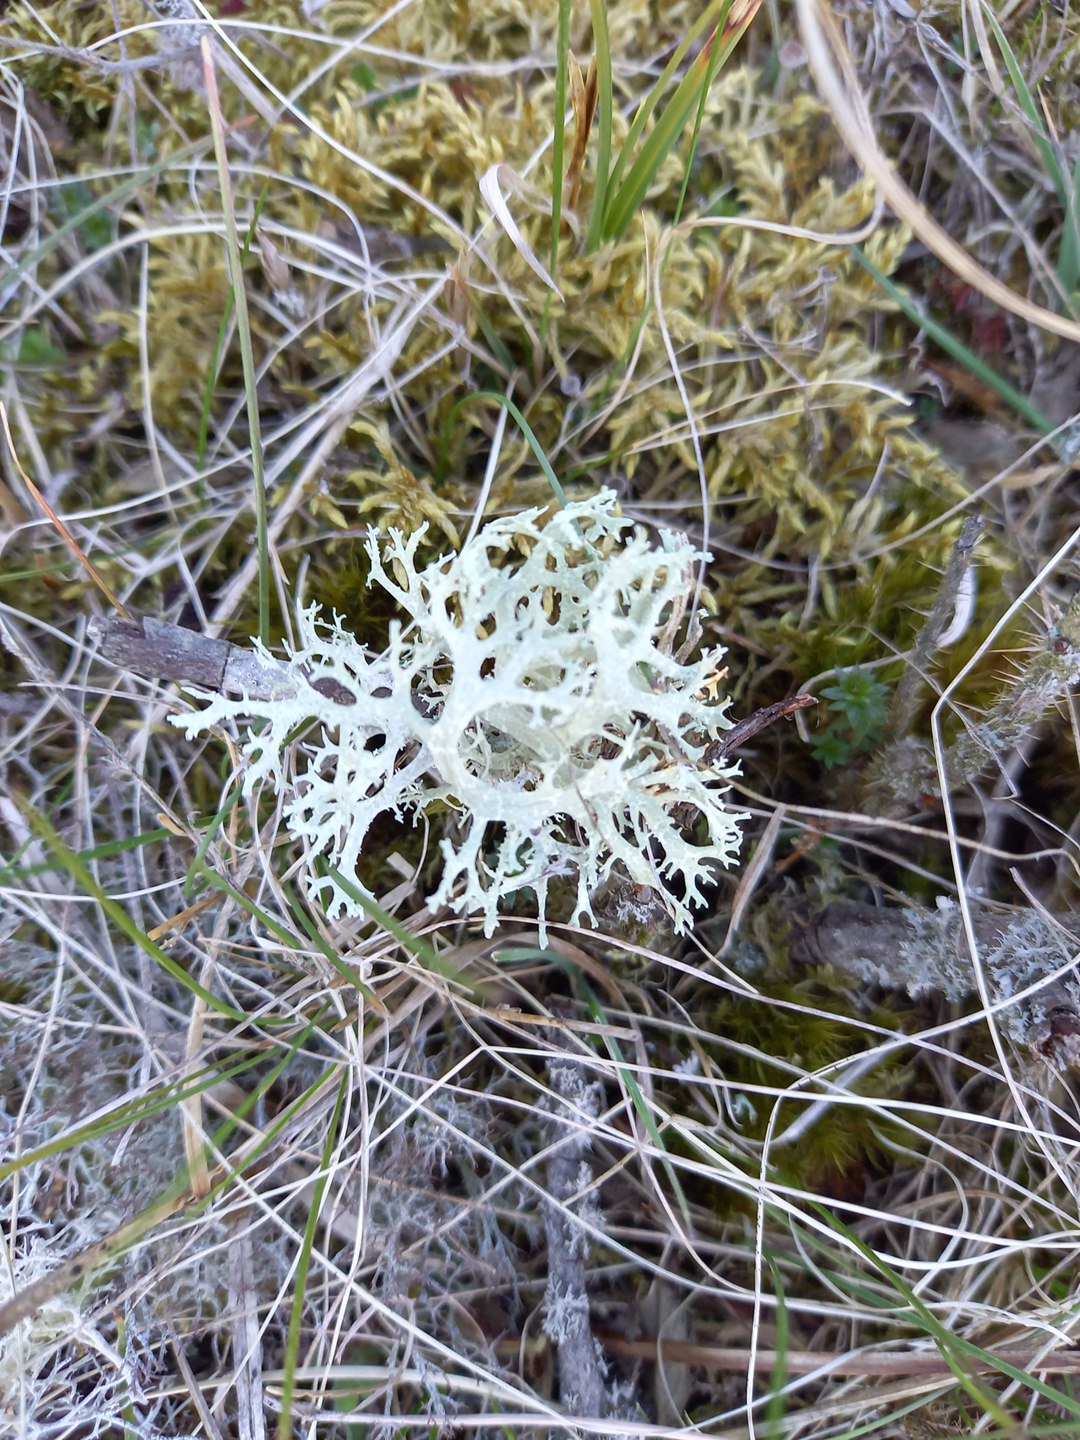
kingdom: Fungi
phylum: Ascomycota
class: Lecanoromycetes
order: Lecanorales
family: Parmeliaceae
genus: Evernia
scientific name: Evernia prunastri
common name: almindelig slåenlav
